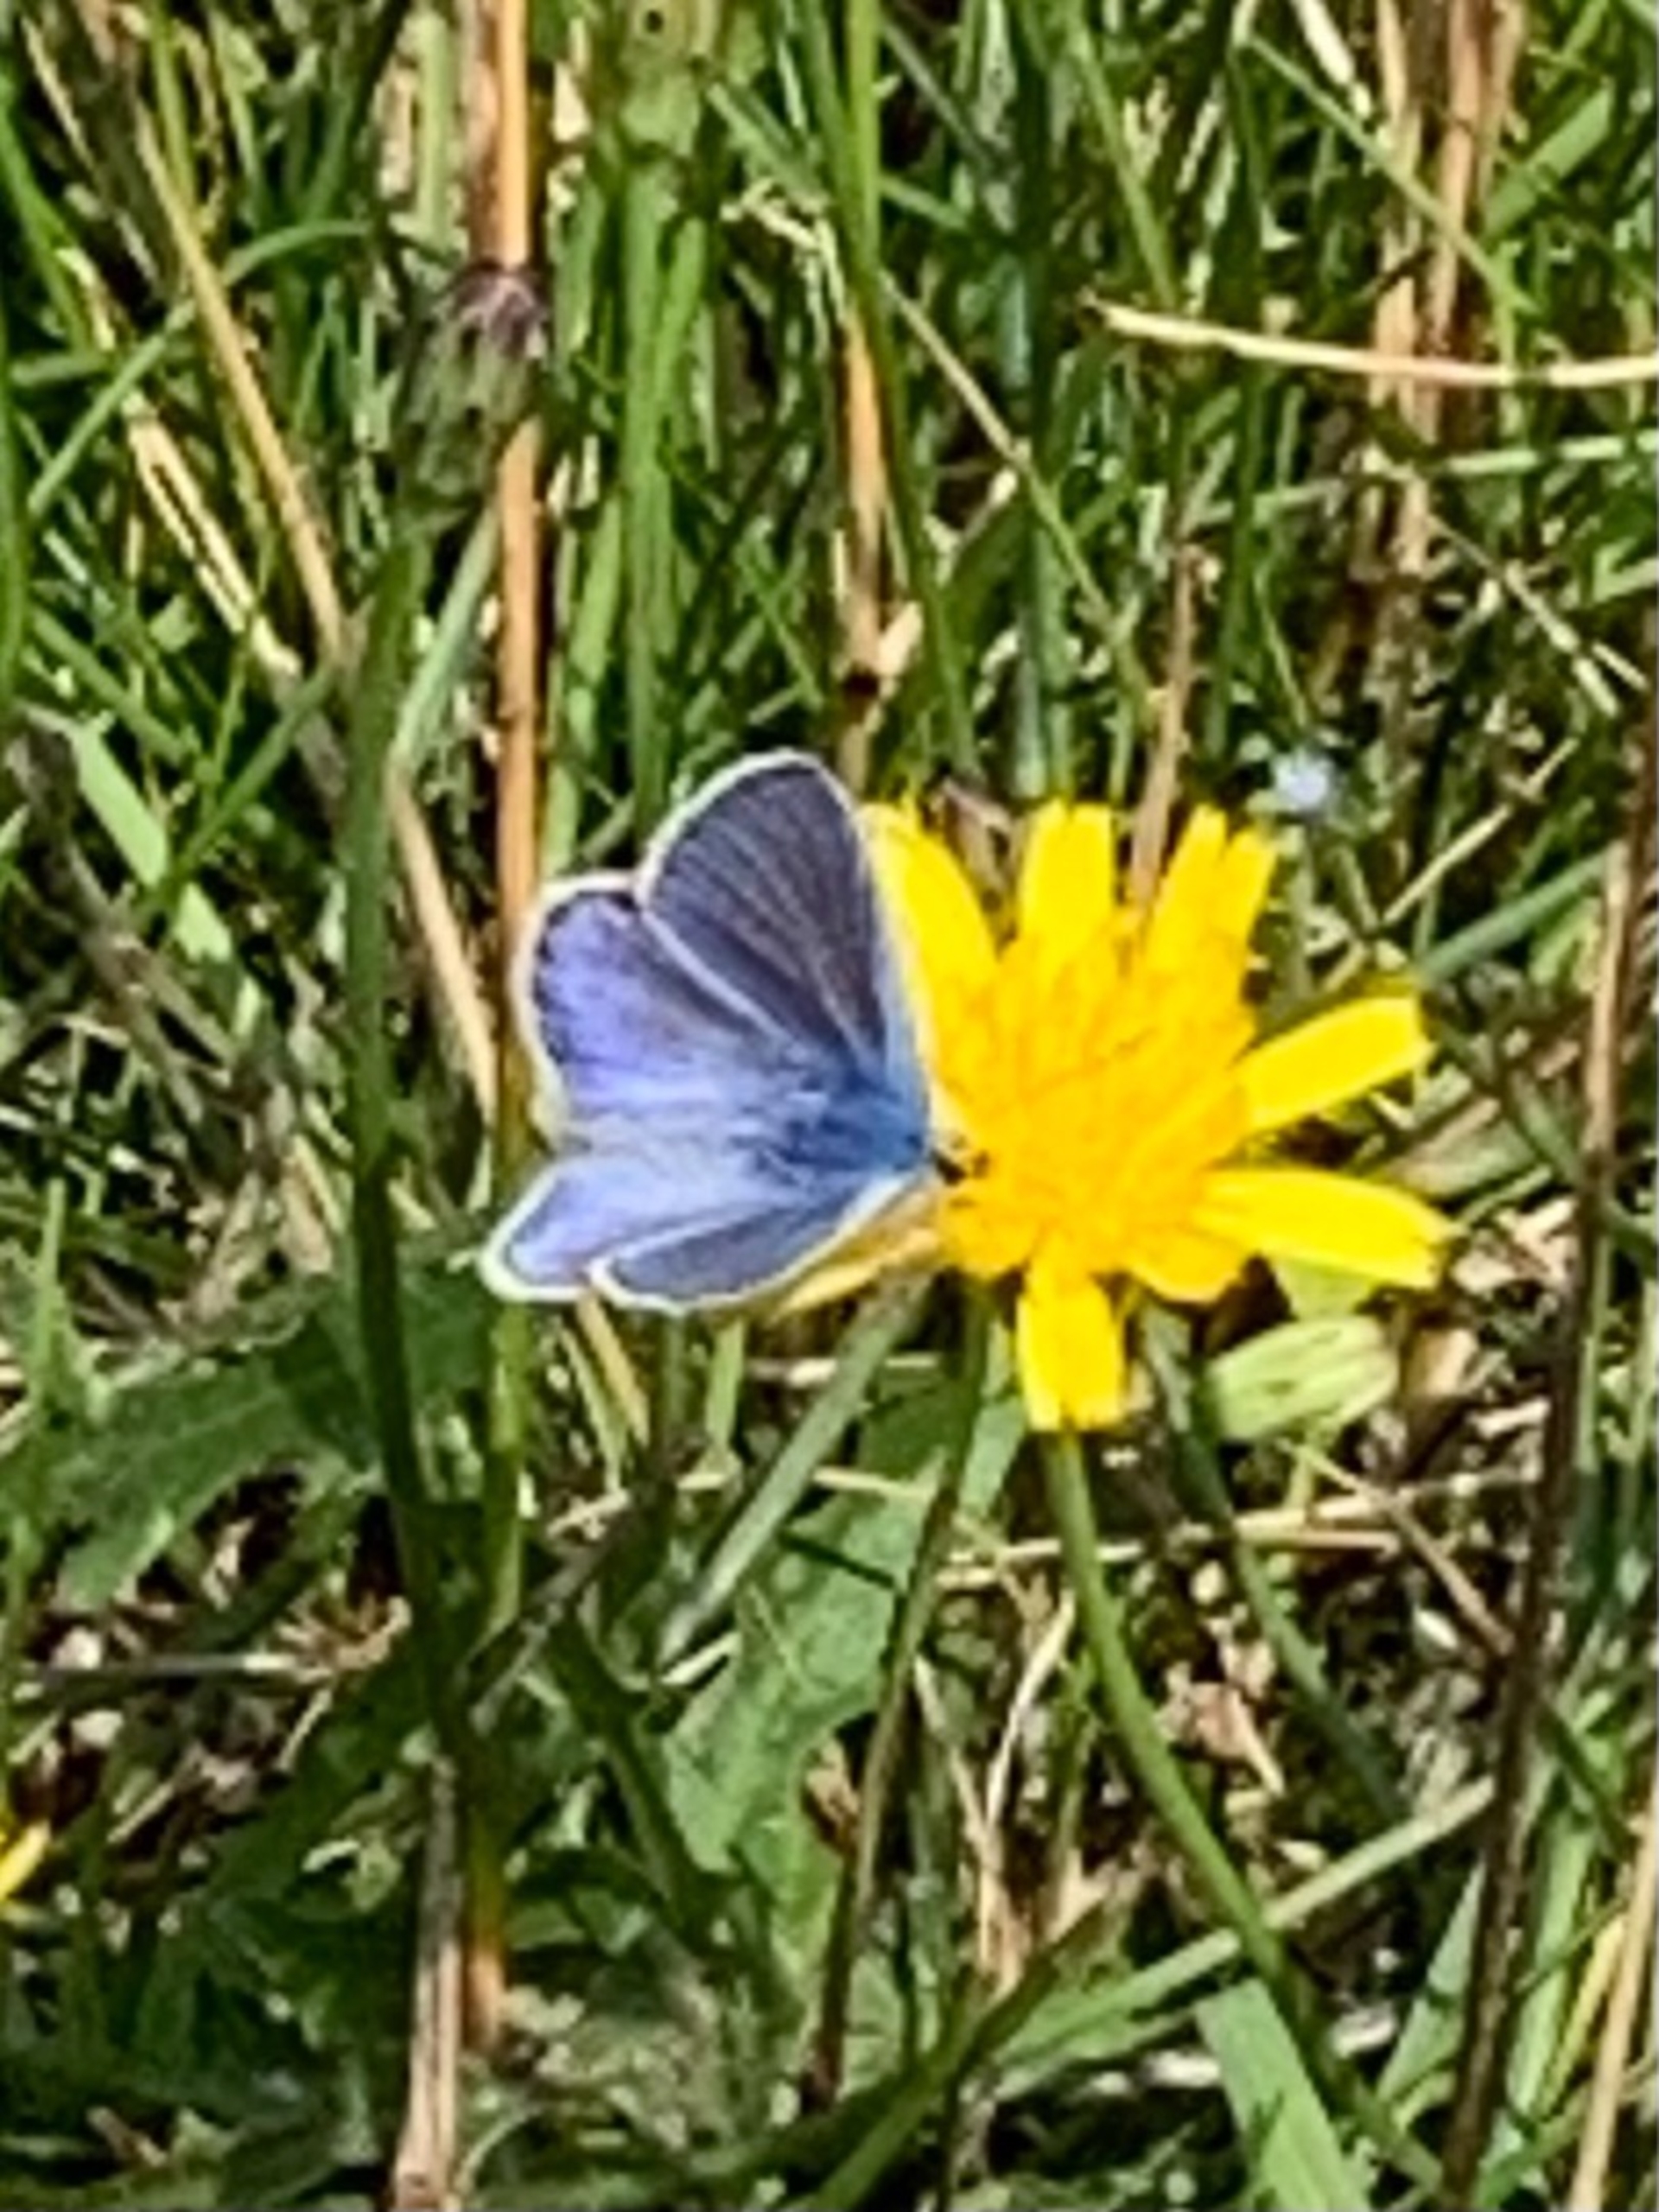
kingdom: Animalia
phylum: Arthropoda
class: Insecta
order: Lepidoptera
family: Lycaenidae
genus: Polyommatus
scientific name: Polyommatus icarus
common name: Almindelig blåfugl
